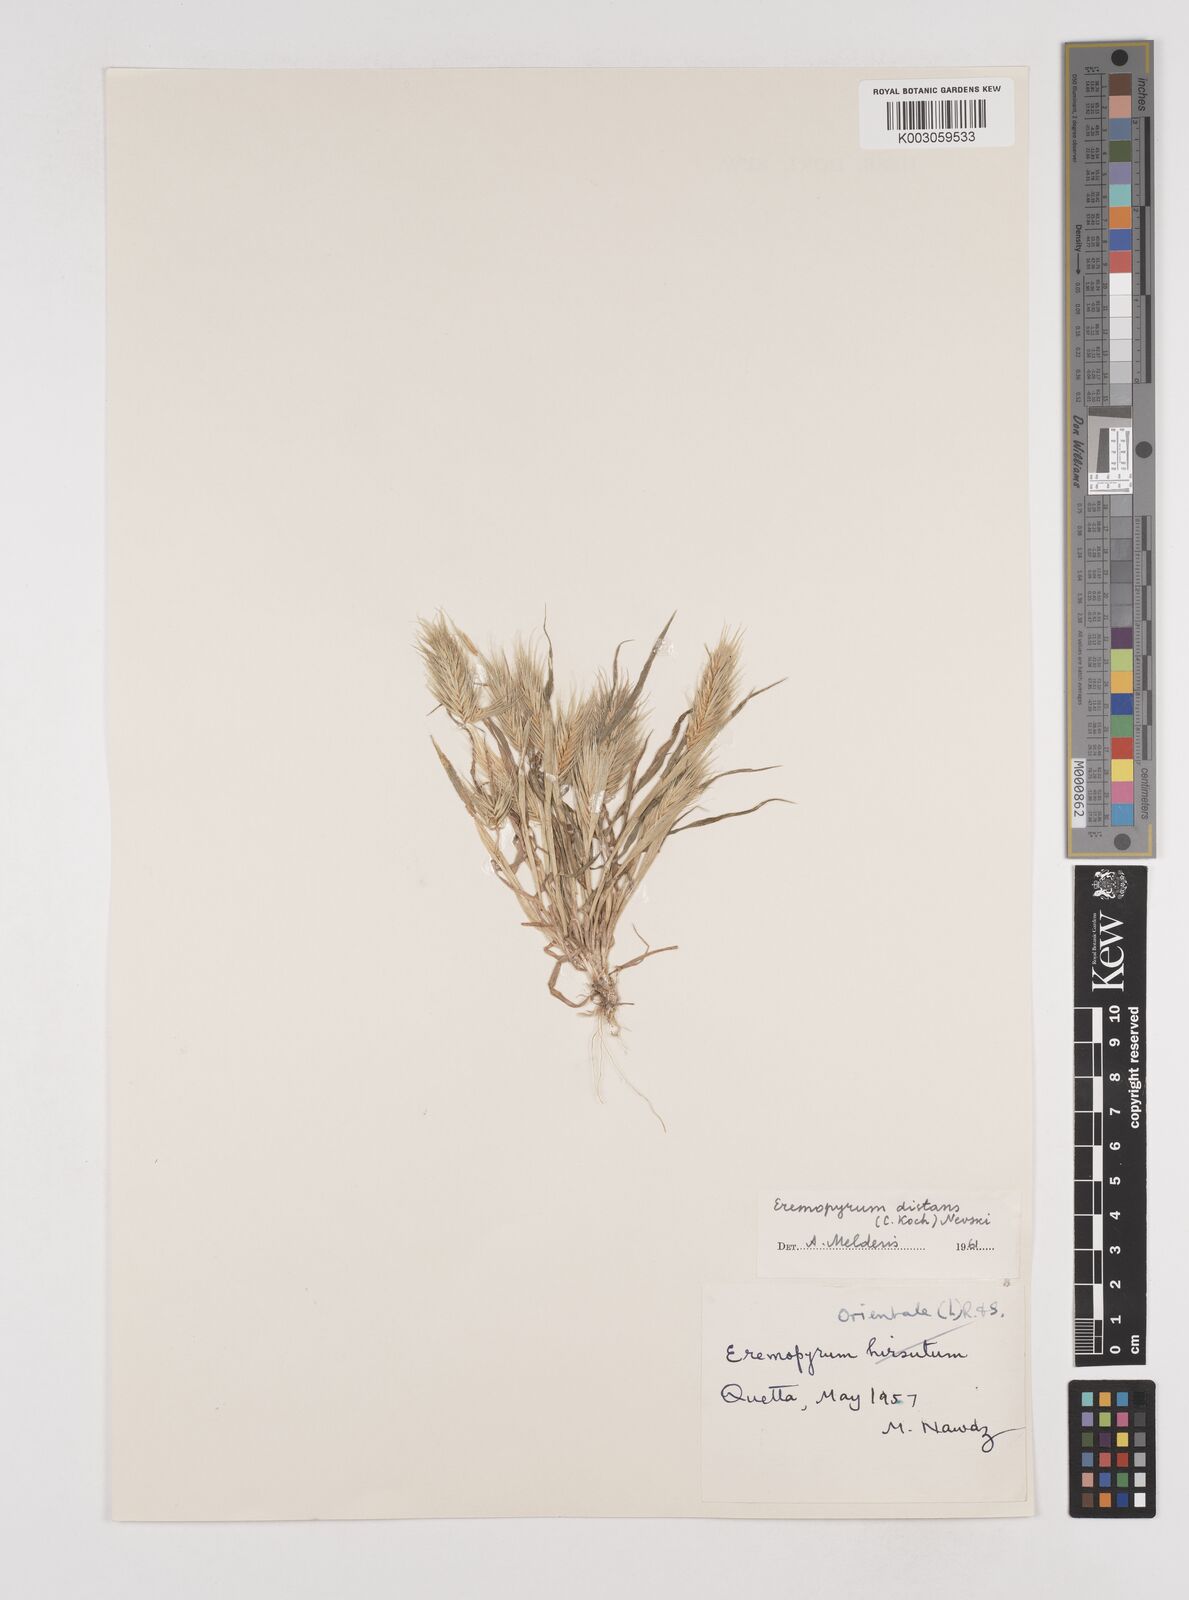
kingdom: Plantae
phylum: Tracheophyta
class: Liliopsida
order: Poales
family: Poaceae
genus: Eremopyrum
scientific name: Eremopyrum distans
